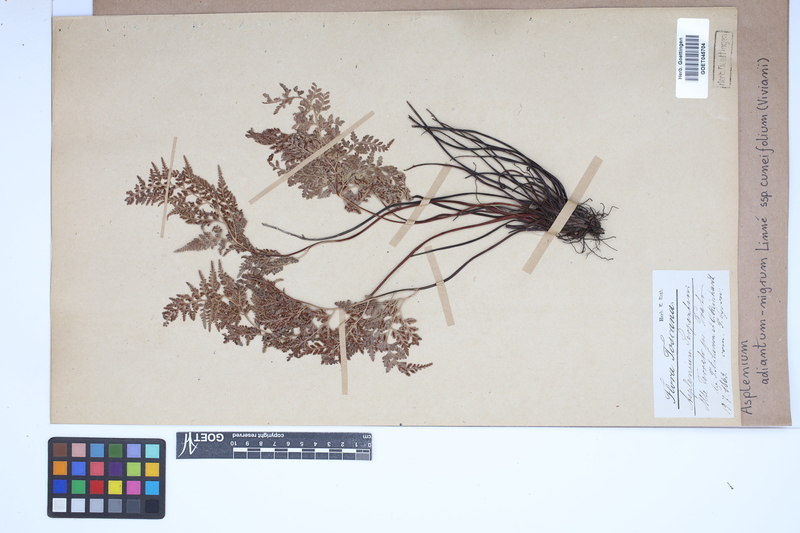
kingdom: Plantae
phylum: Tracheophyta
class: Polypodiopsida
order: Polypodiales
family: Aspleniaceae
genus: Asplenium
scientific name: Asplenium cuneifolium
